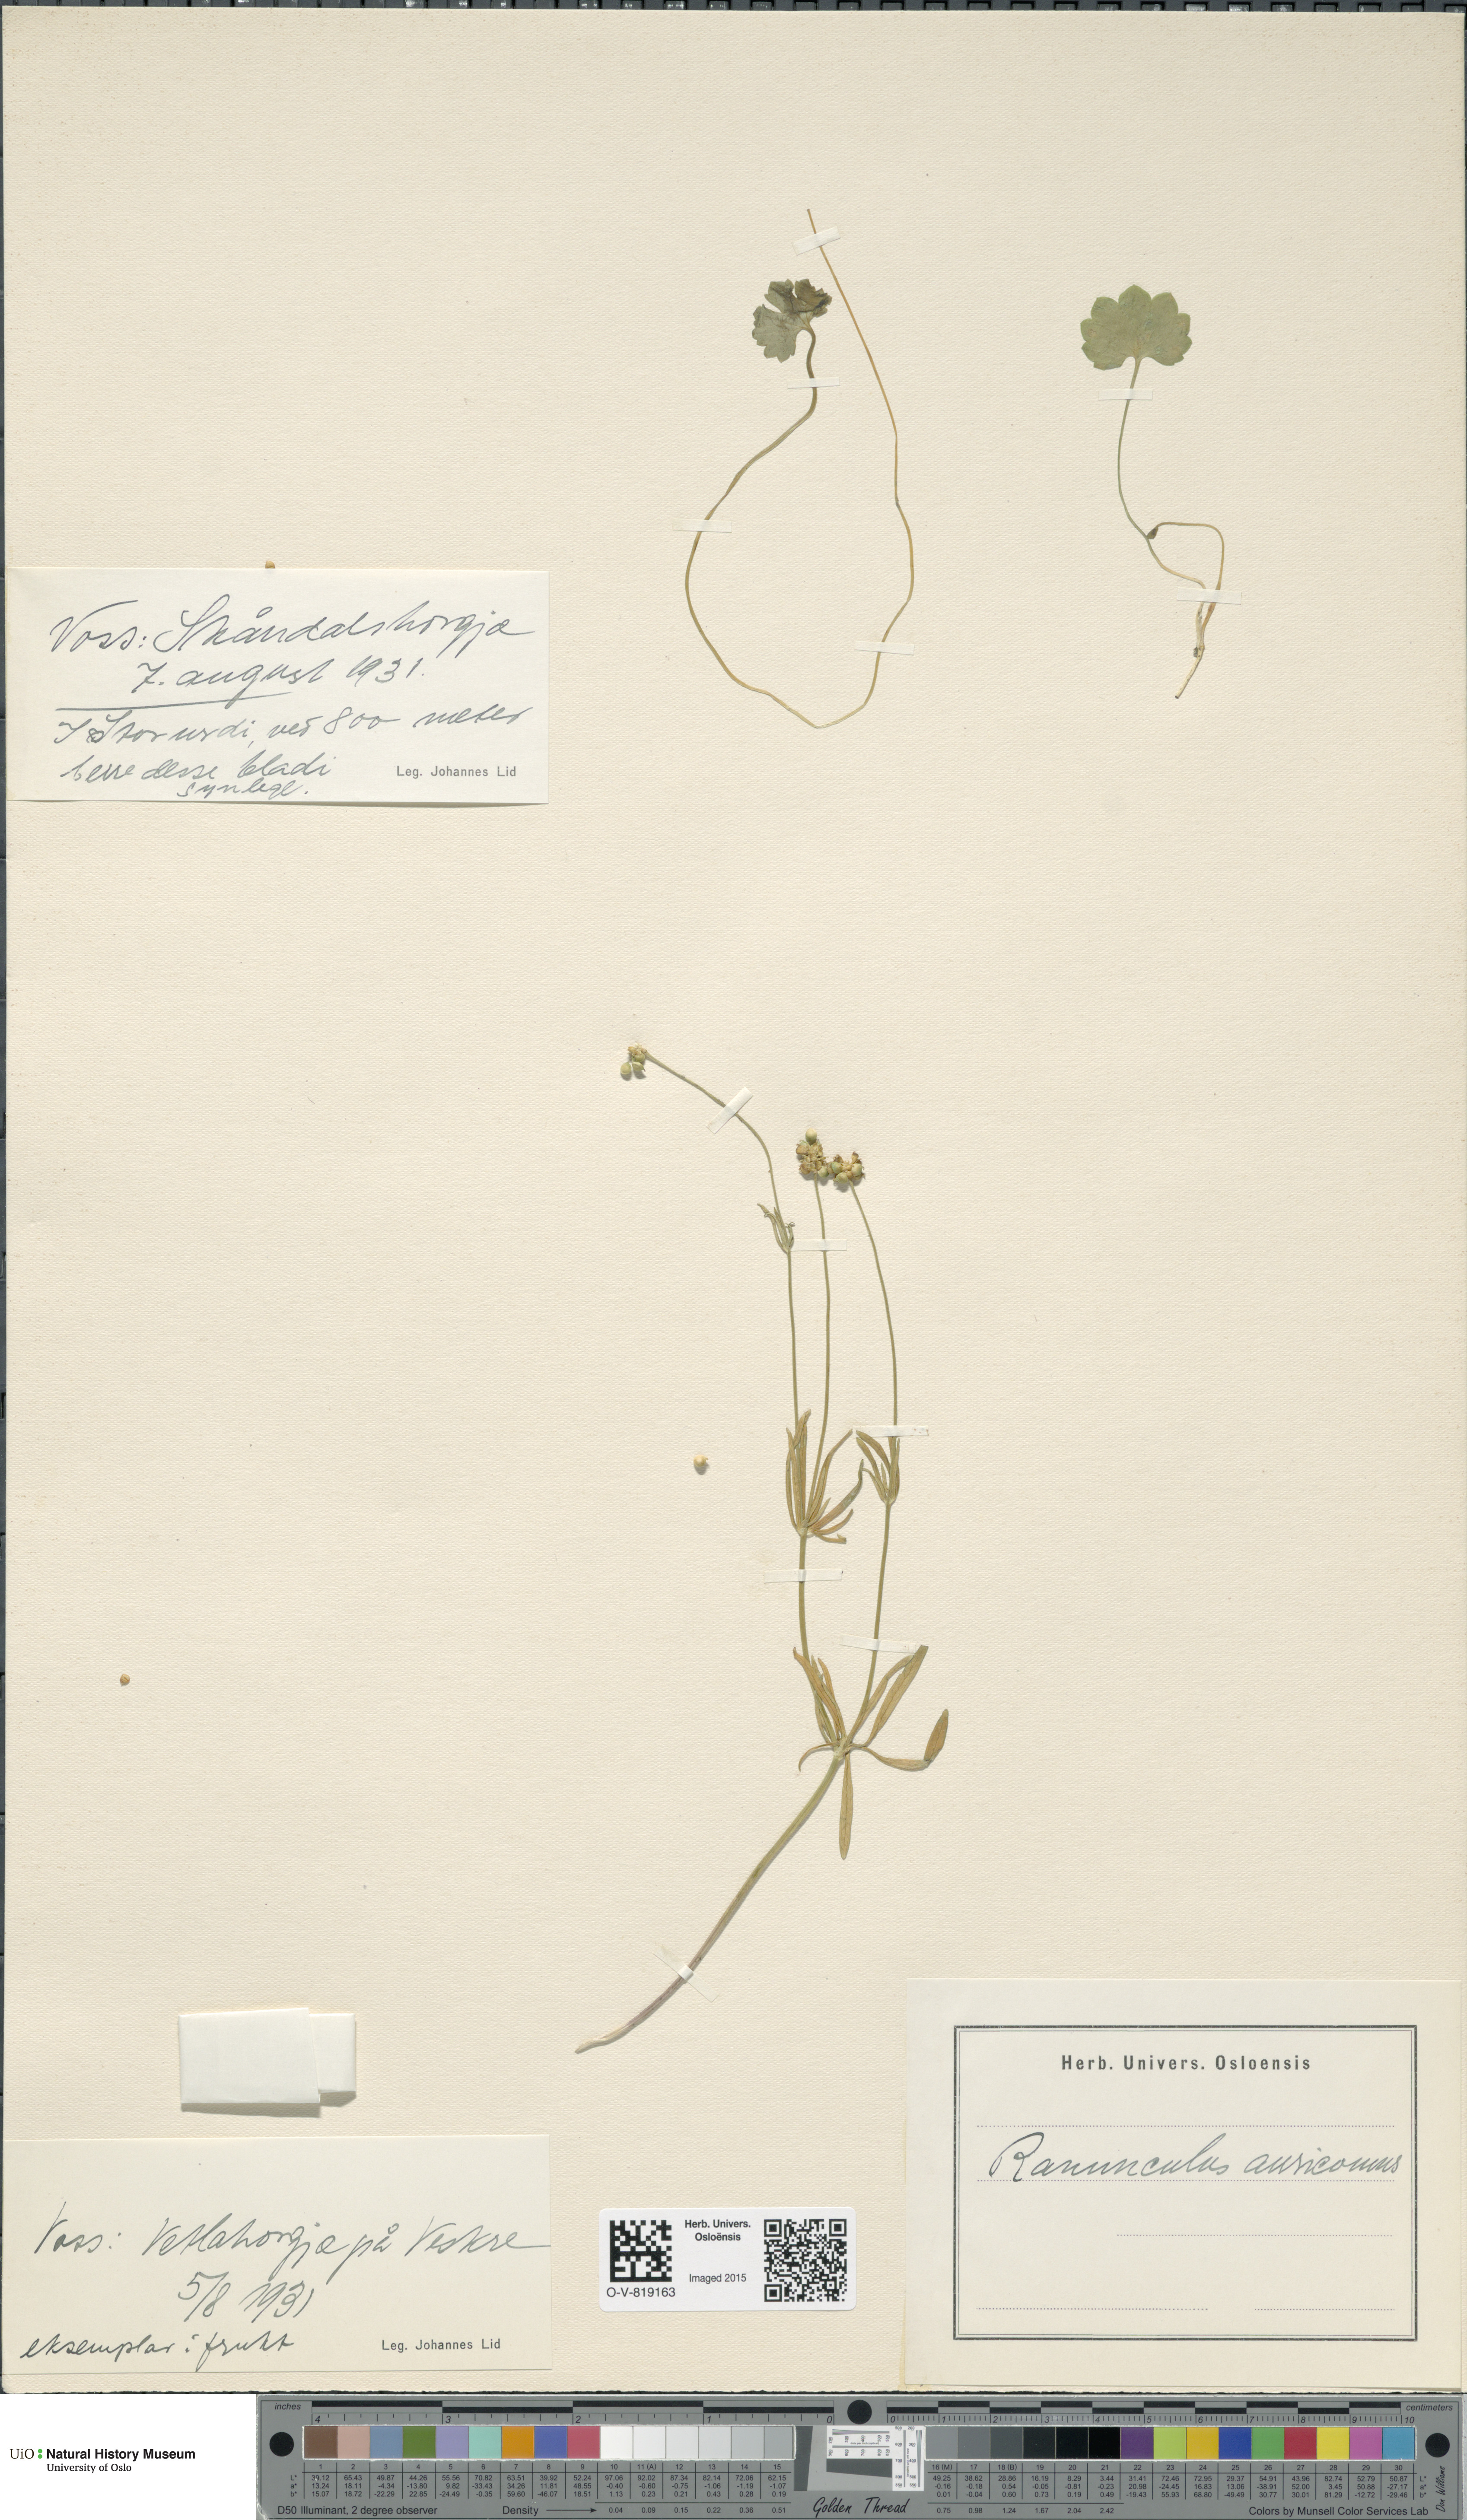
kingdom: Plantae
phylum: Tracheophyta
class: Magnoliopsida
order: Ranunculales
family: Ranunculaceae
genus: Ranunculus
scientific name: Ranunculus auricomus
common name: Goldilocks buttercup
